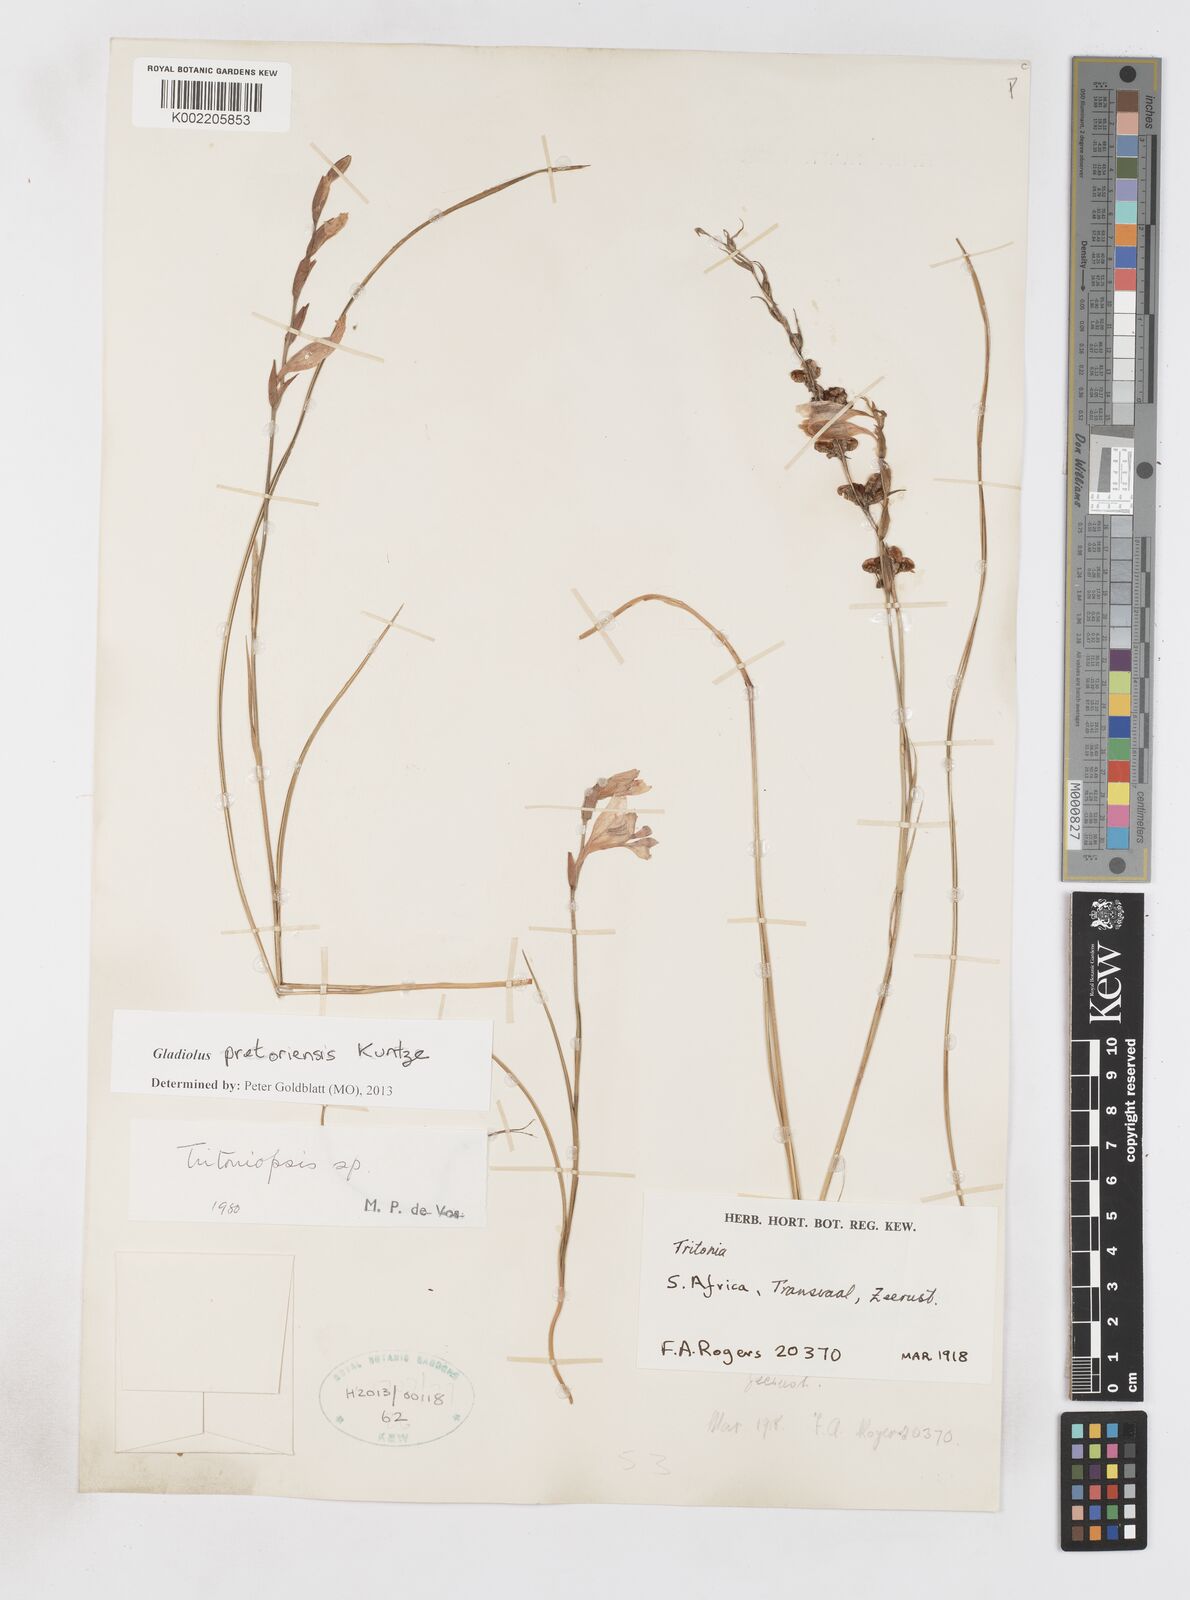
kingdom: Plantae
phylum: Tracheophyta
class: Liliopsida
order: Asparagales
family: Iridaceae
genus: Gladiolus
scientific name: Gladiolus pretoriensis
